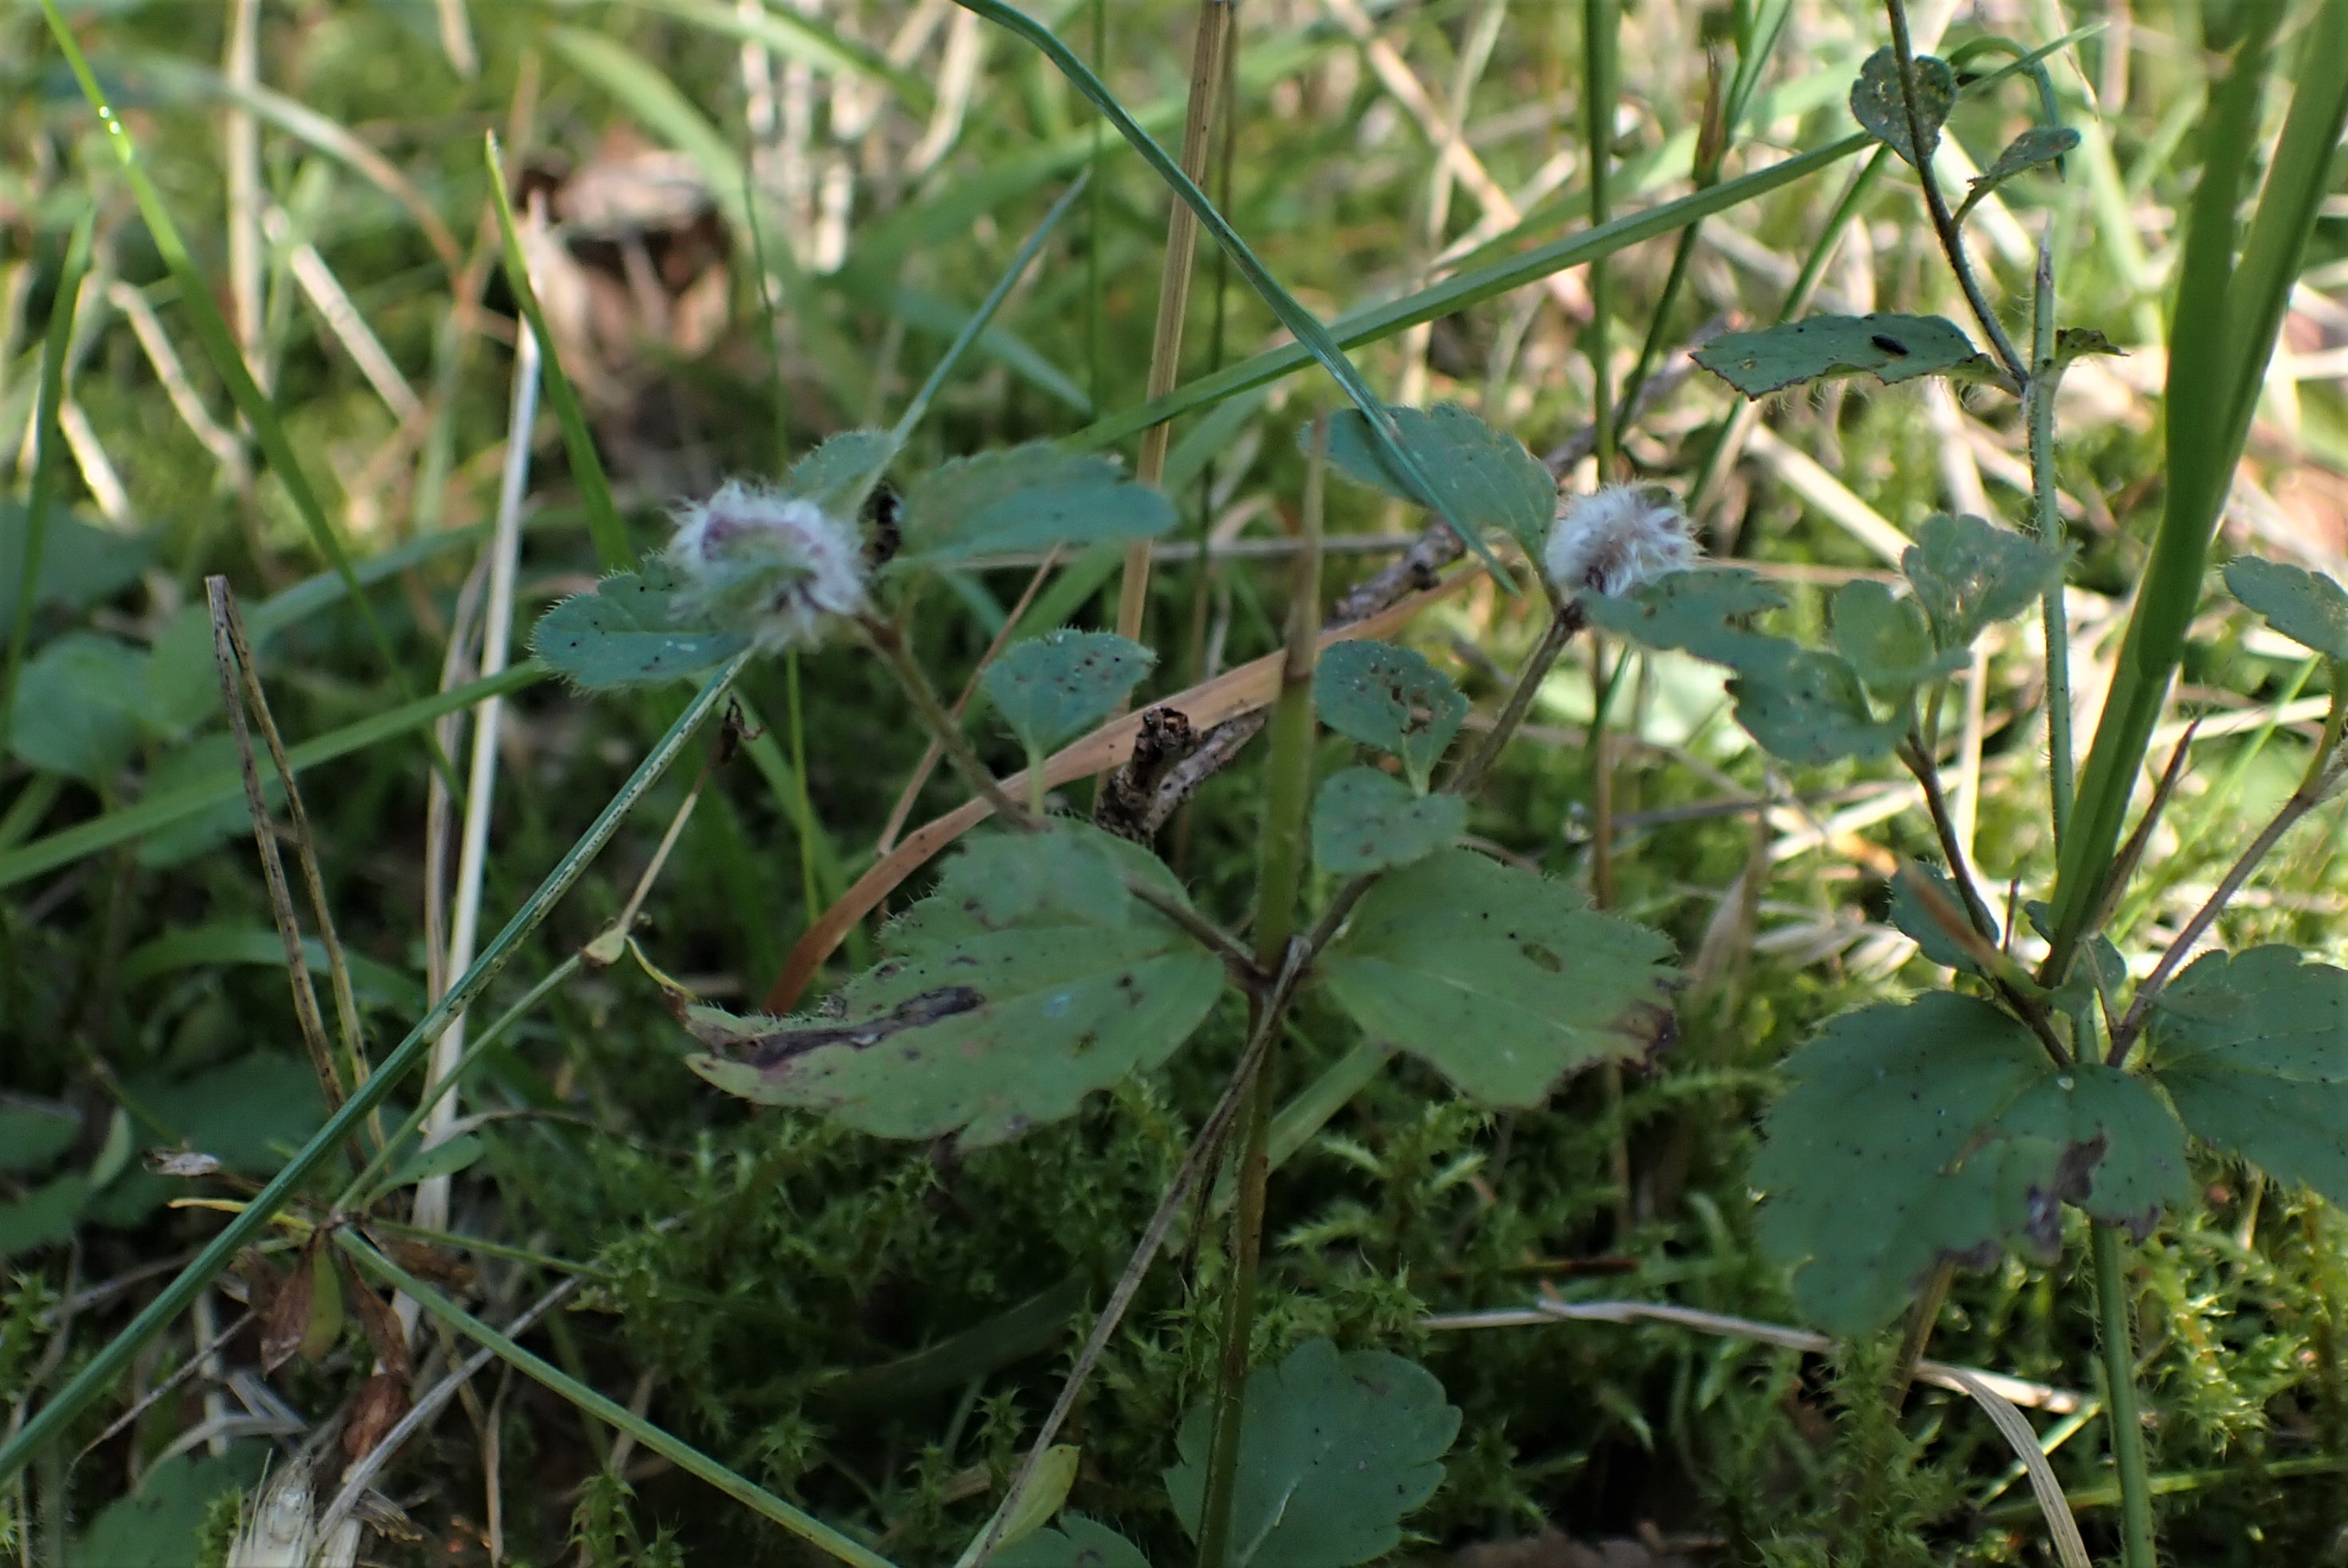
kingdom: Animalia
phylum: Arthropoda
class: Insecta
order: Diptera
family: Cecidomyiidae
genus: Jaapiella
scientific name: Jaapiella veronicae
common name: Ærenprisgalmyg
